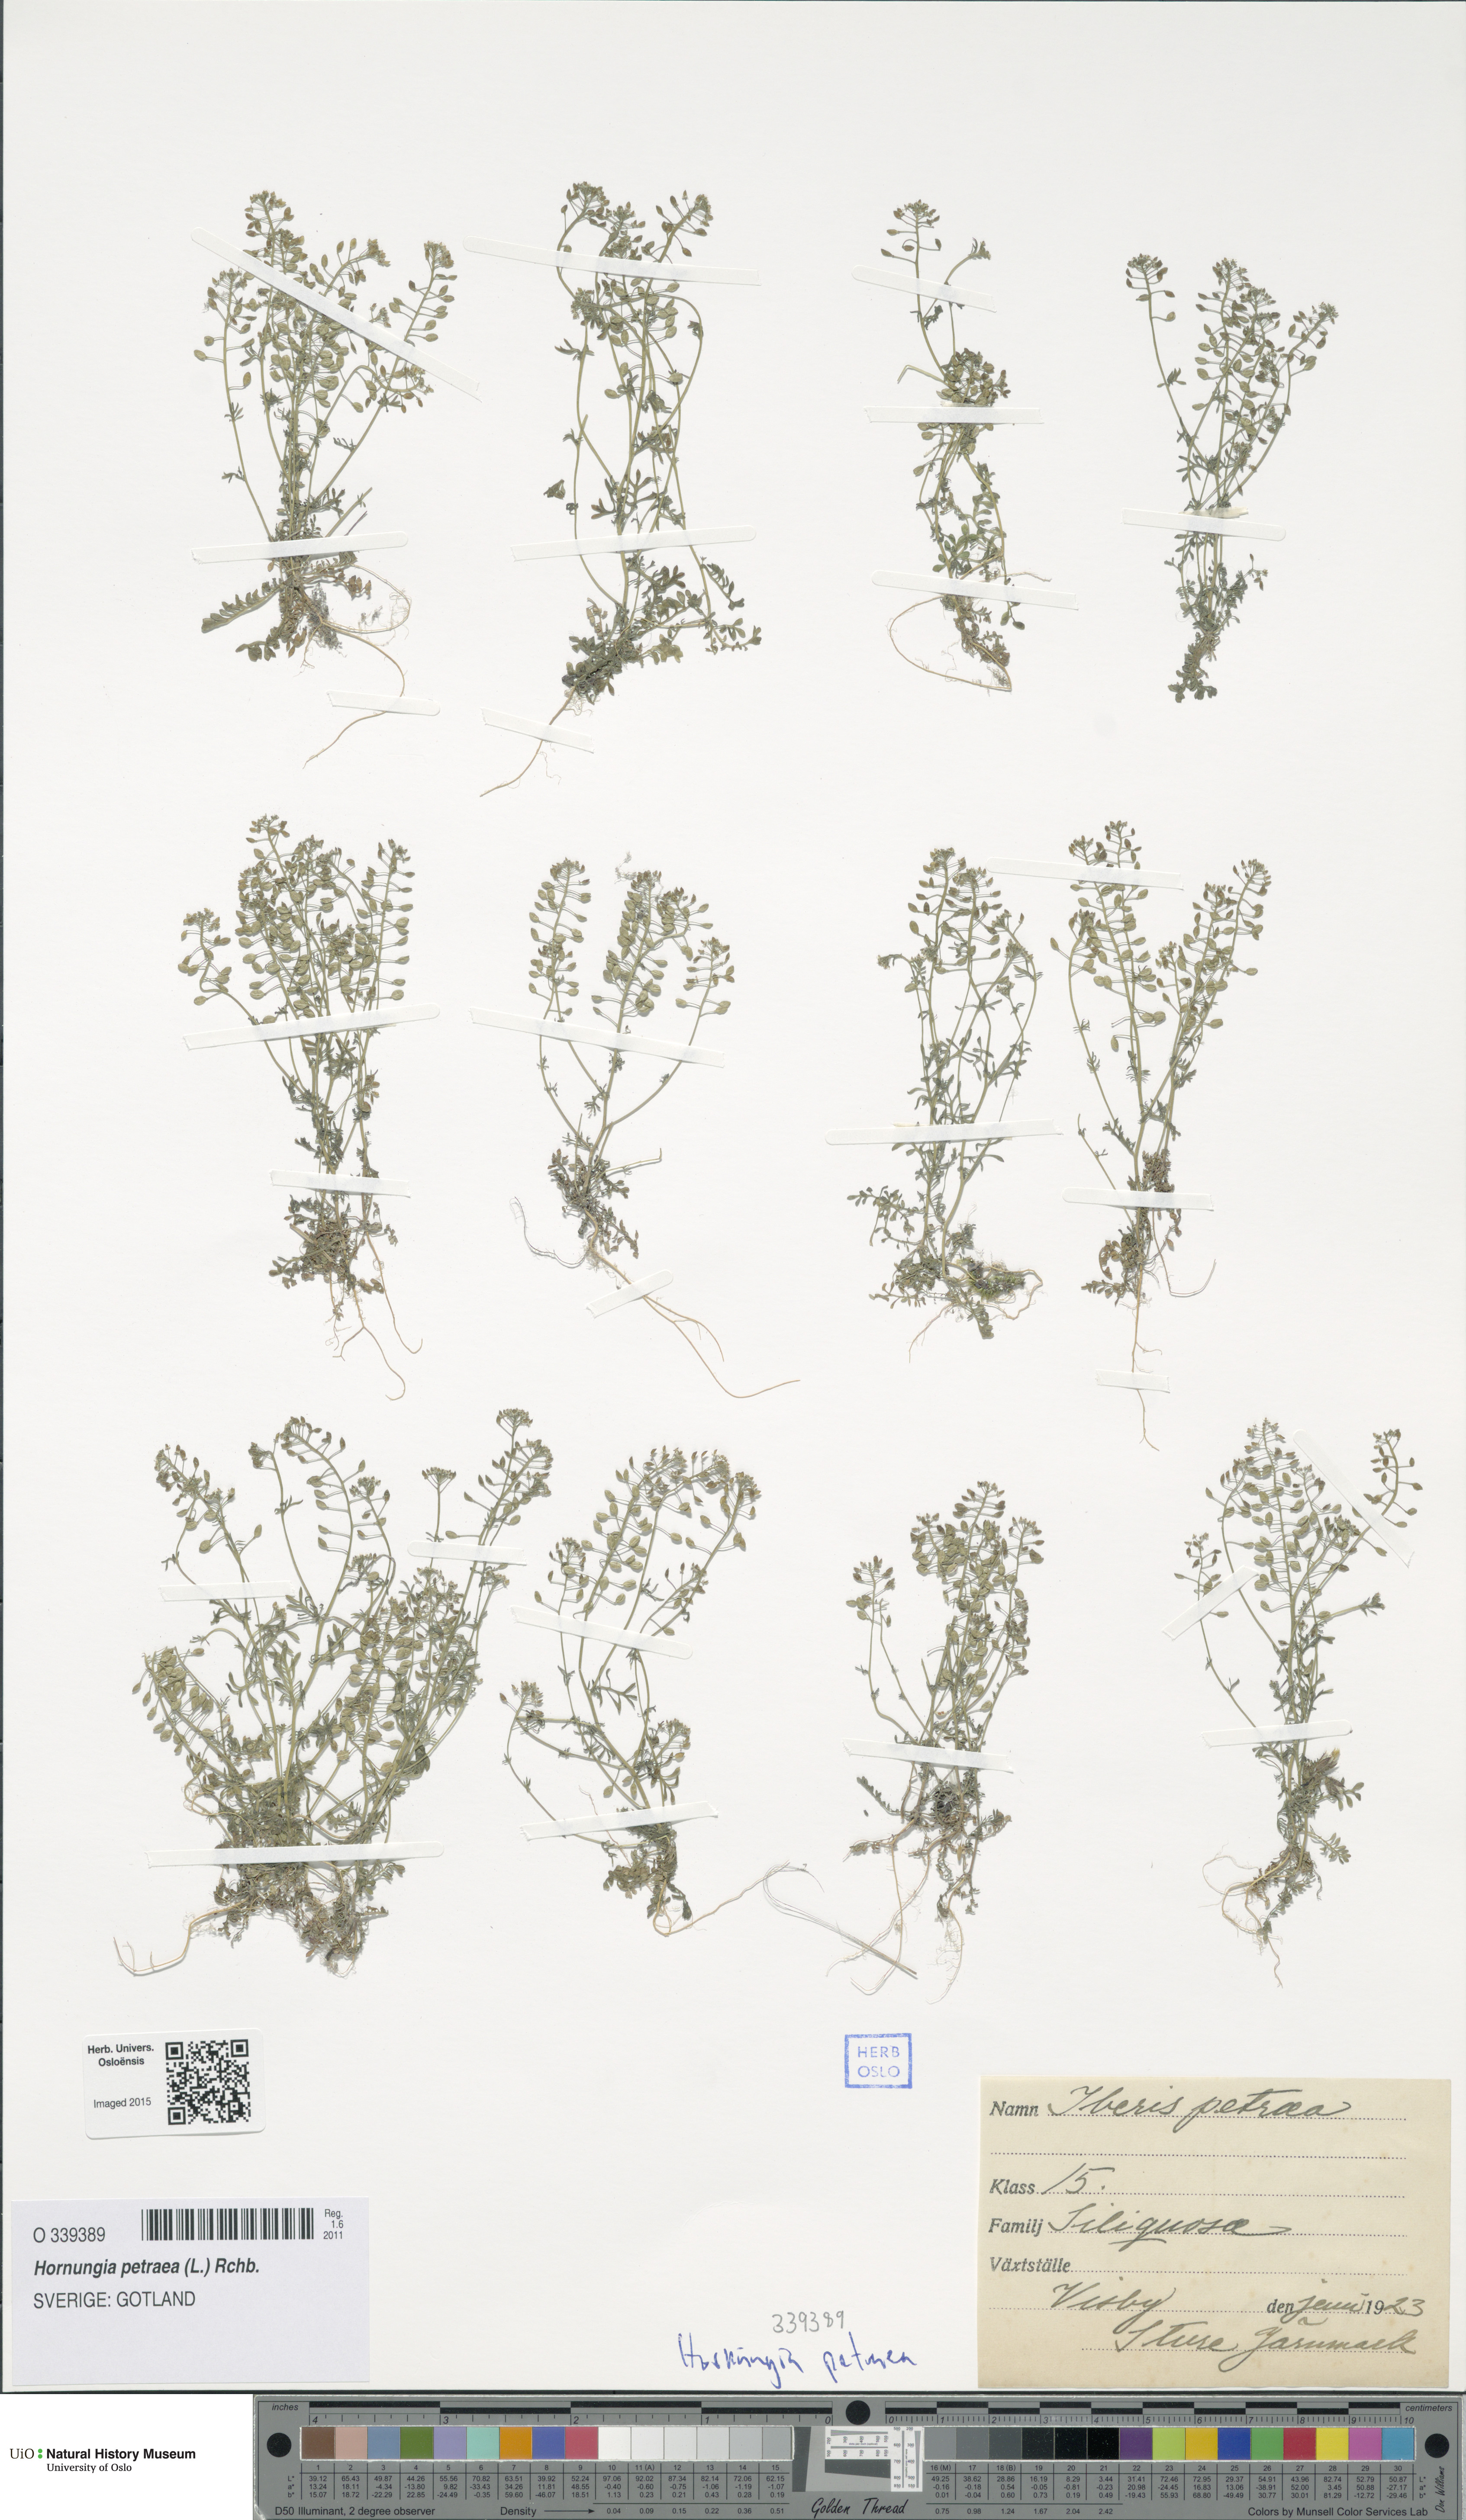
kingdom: Plantae
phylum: Tracheophyta
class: Magnoliopsida
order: Brassicales
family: Brassicaceae
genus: Hornungia
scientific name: Hornungia petraea
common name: Hutchinsia
